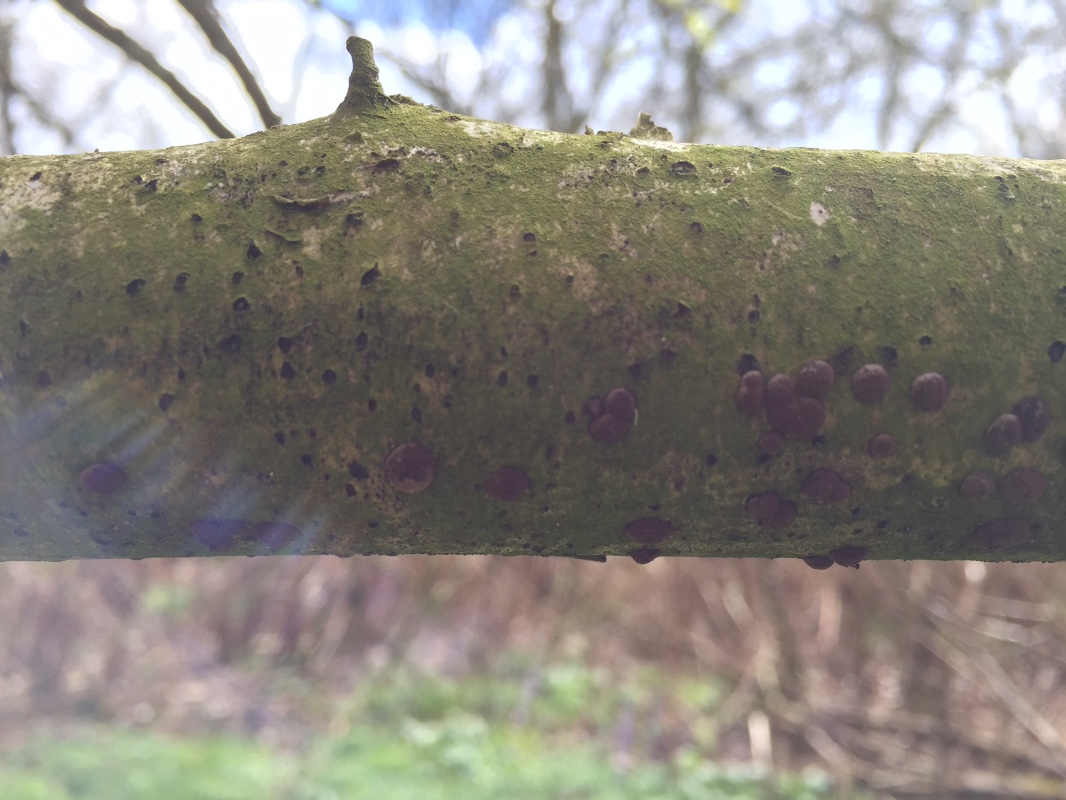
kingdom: Fungi
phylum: Ascomycota
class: Sordariomycetes
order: Xylariales
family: Hypoxylaceae
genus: Hypoxylon
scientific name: Hypoxylon fuscum
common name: kegleformet kulbær
